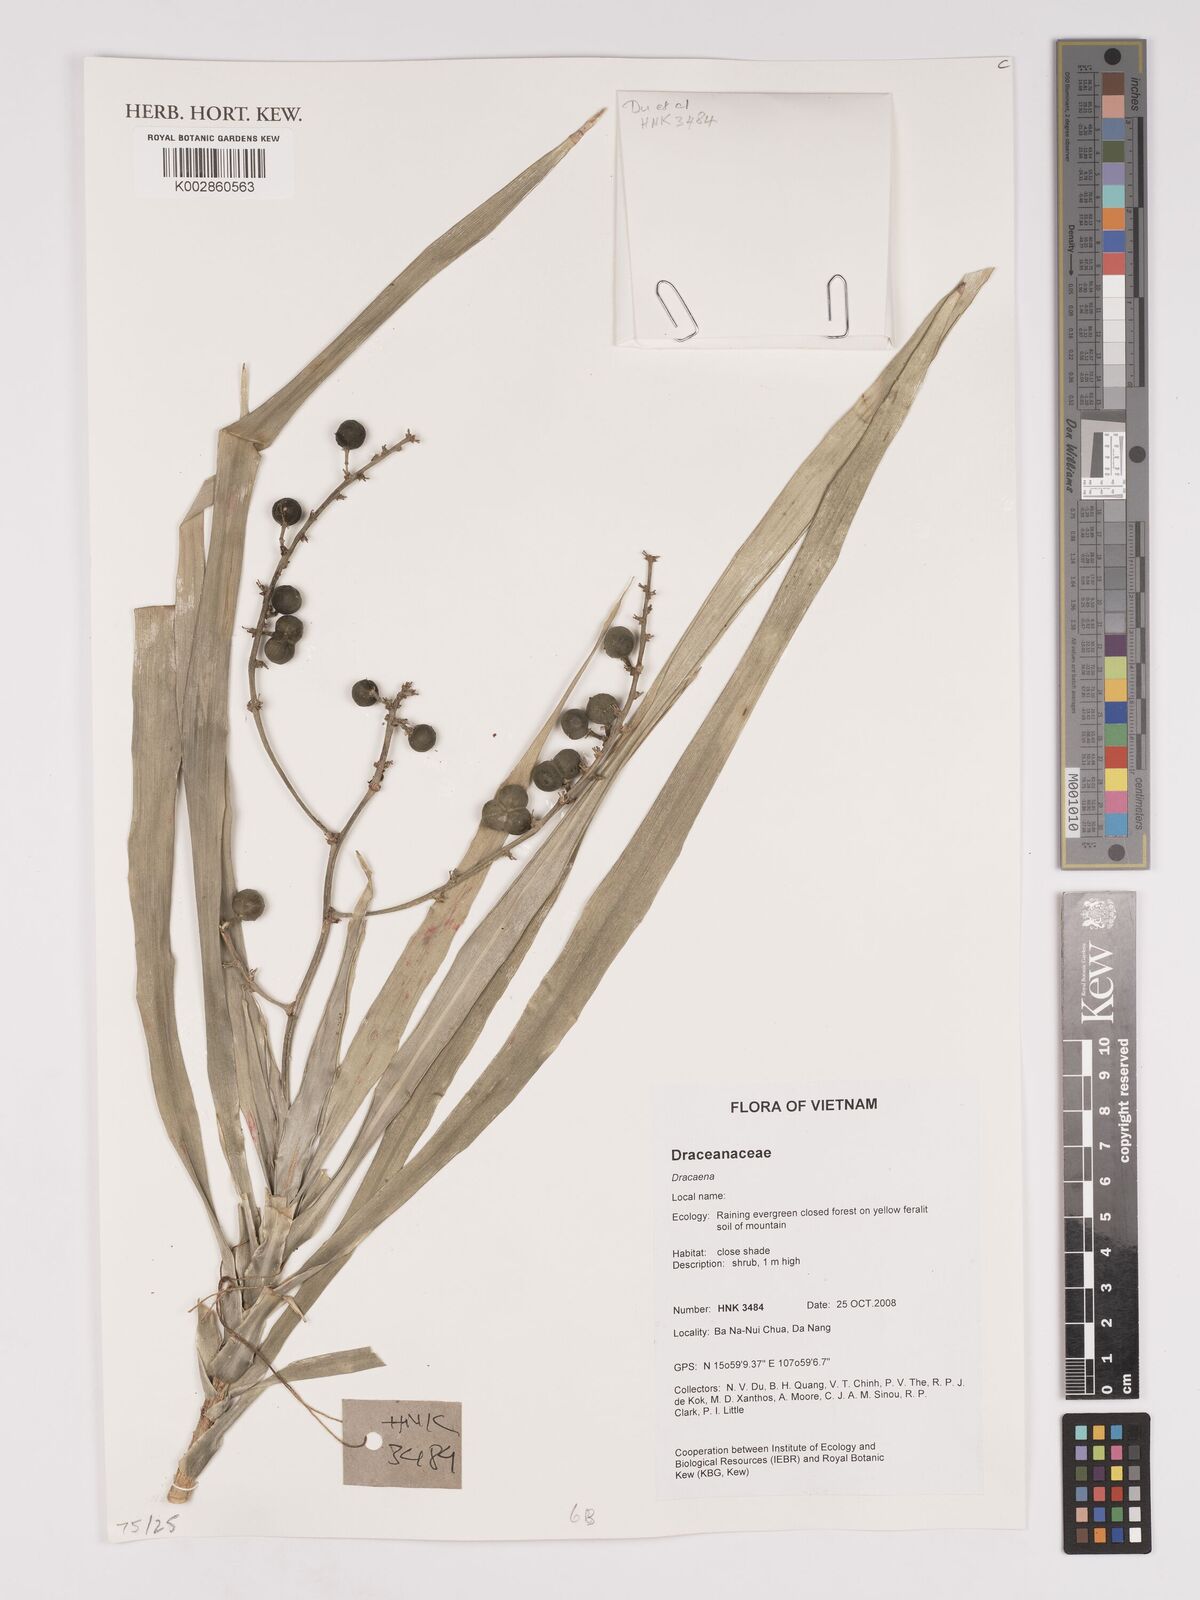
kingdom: Plantae
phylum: Tracheophyta
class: Liliopsida
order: Asparagales
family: Asparagaceae
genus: Dracaena
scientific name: Dracaena
